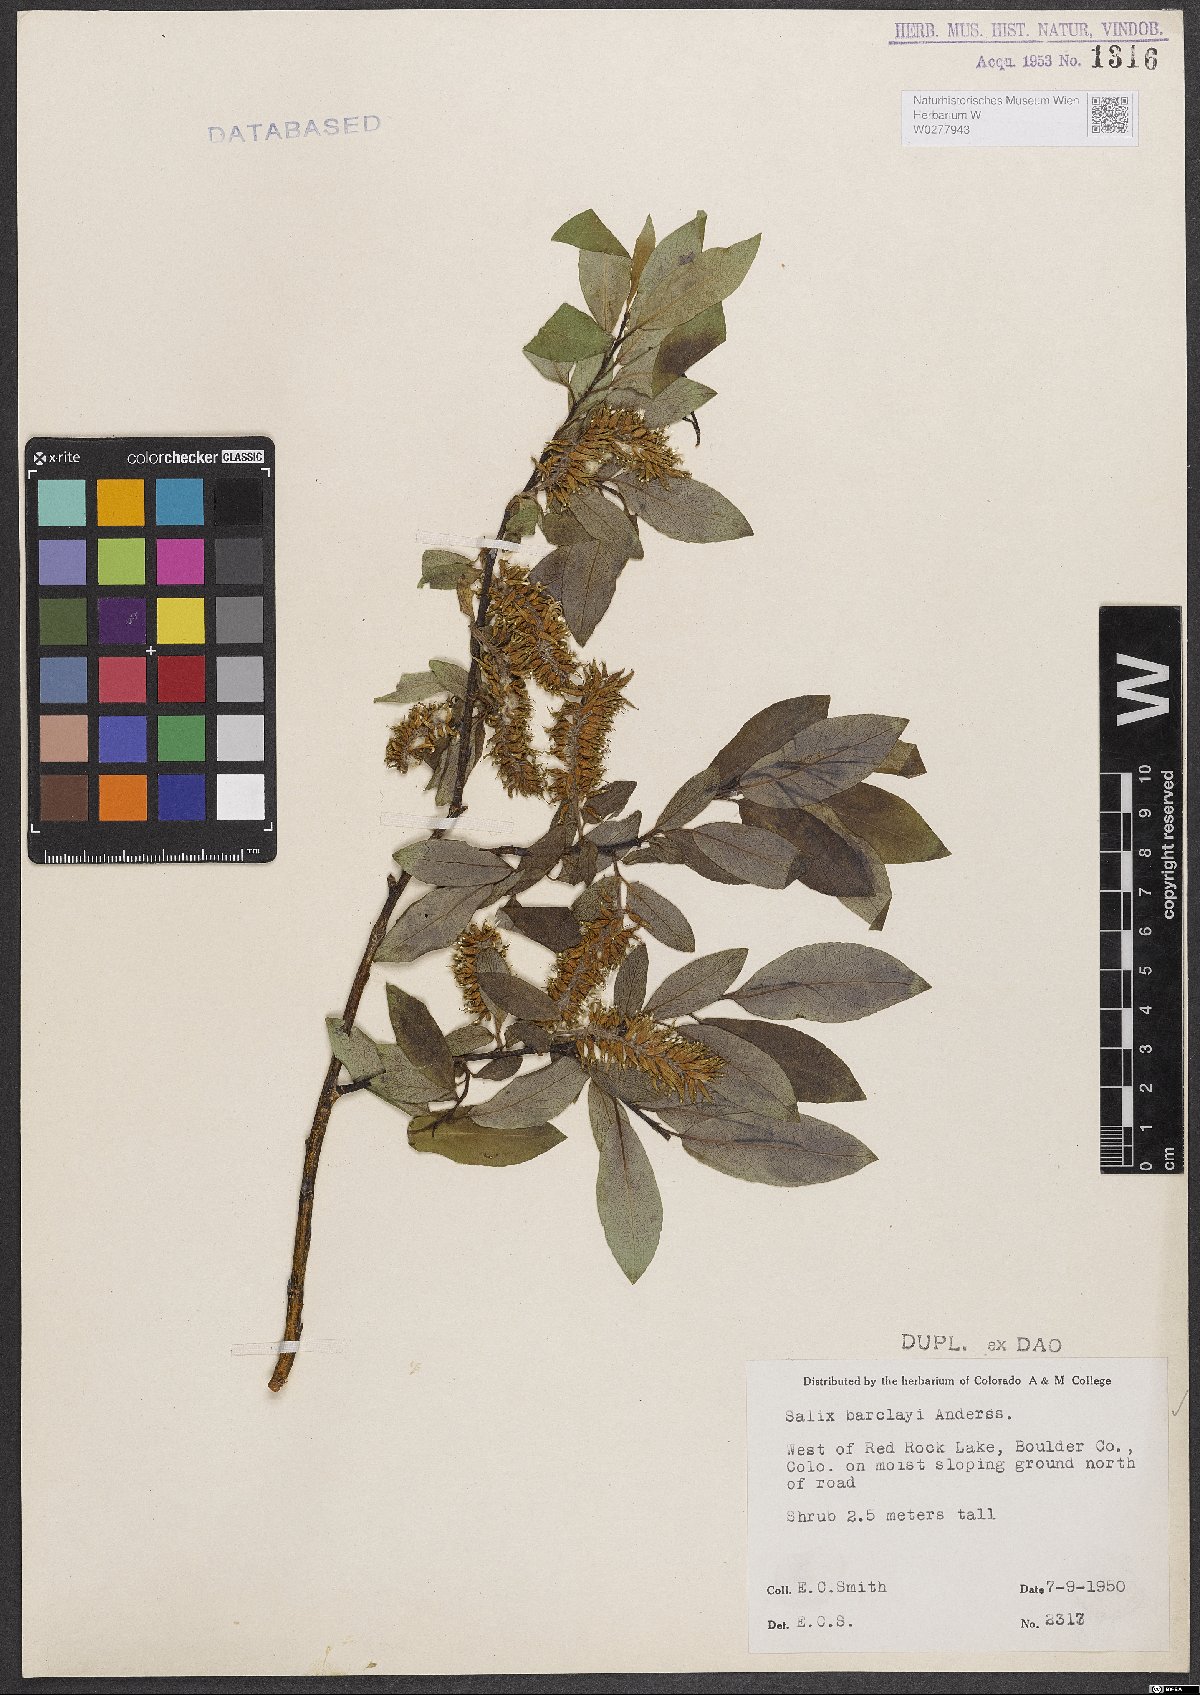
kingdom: Plantae
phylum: Tracheophyta
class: Magnoliopsida
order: Malpighiales
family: Salicaceae
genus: Salix
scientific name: Salix barclayi
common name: Mountain willow
